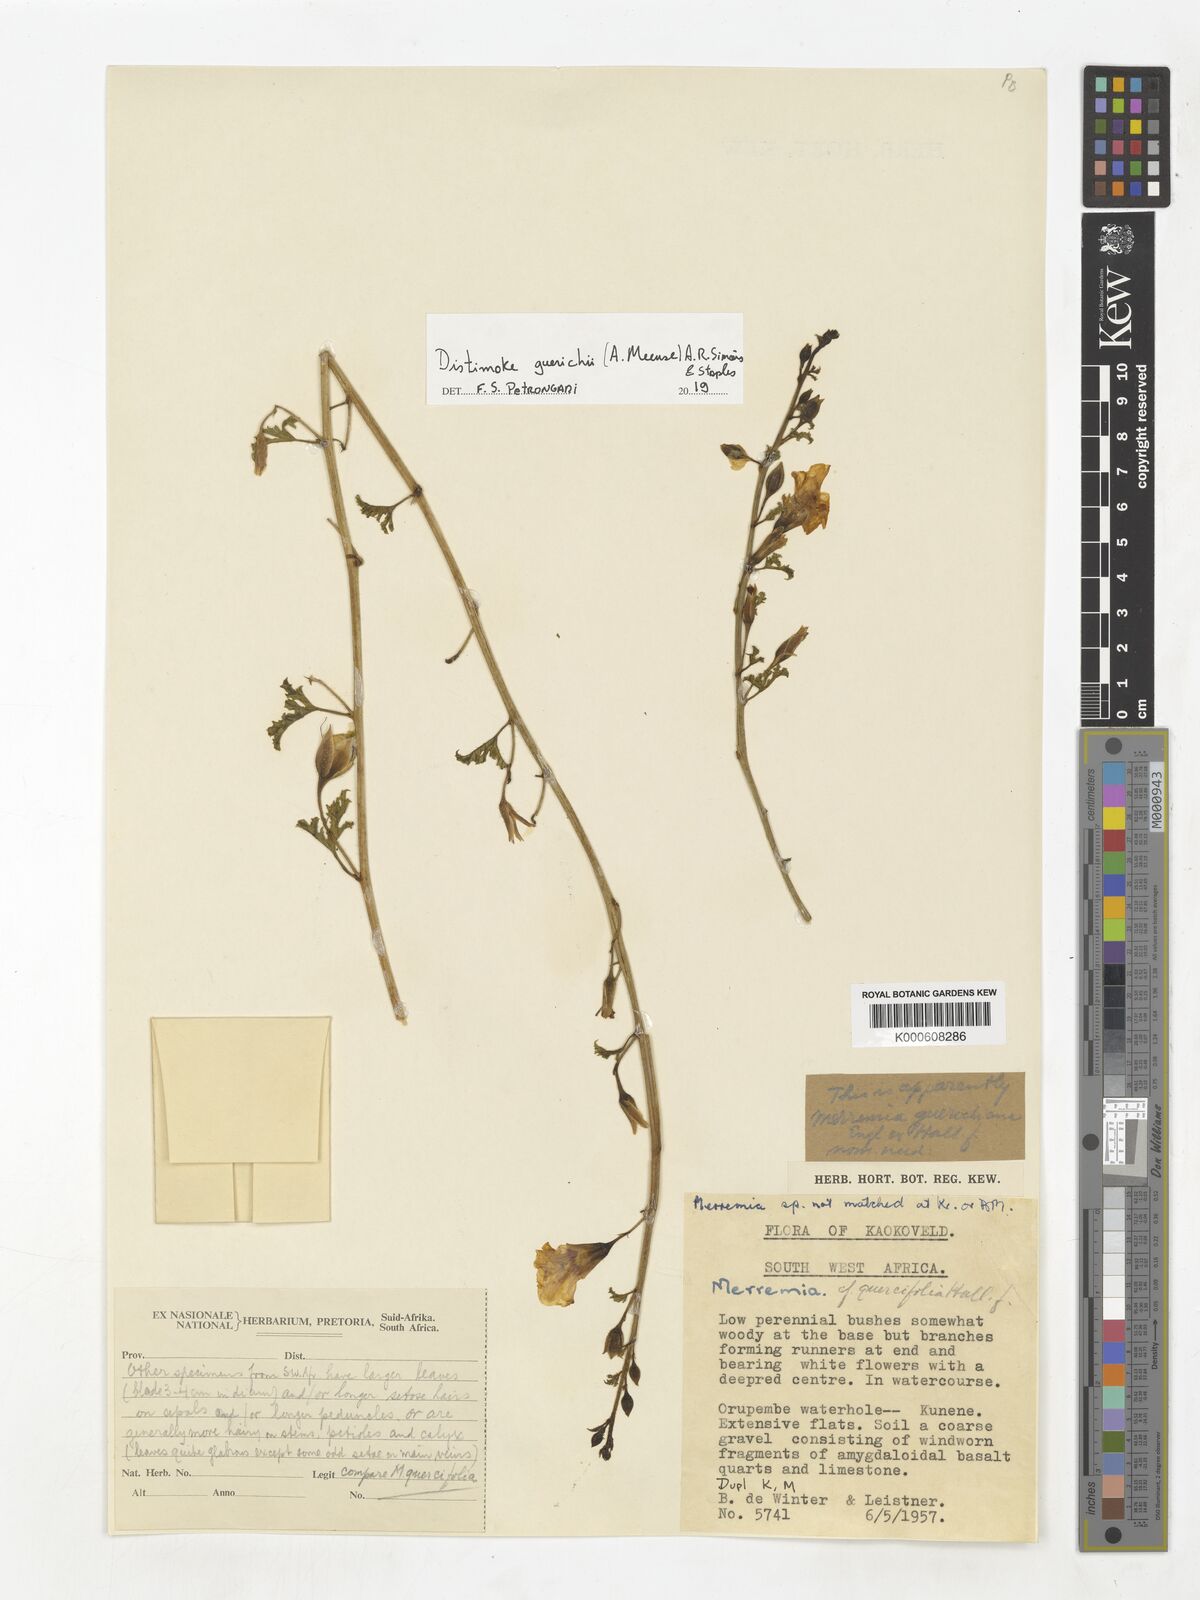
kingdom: Plantae
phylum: Tracheophyta
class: Magnoliopsida
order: Solanales
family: Convolvulaceae
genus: Distimake
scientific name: Distimake guerichii
